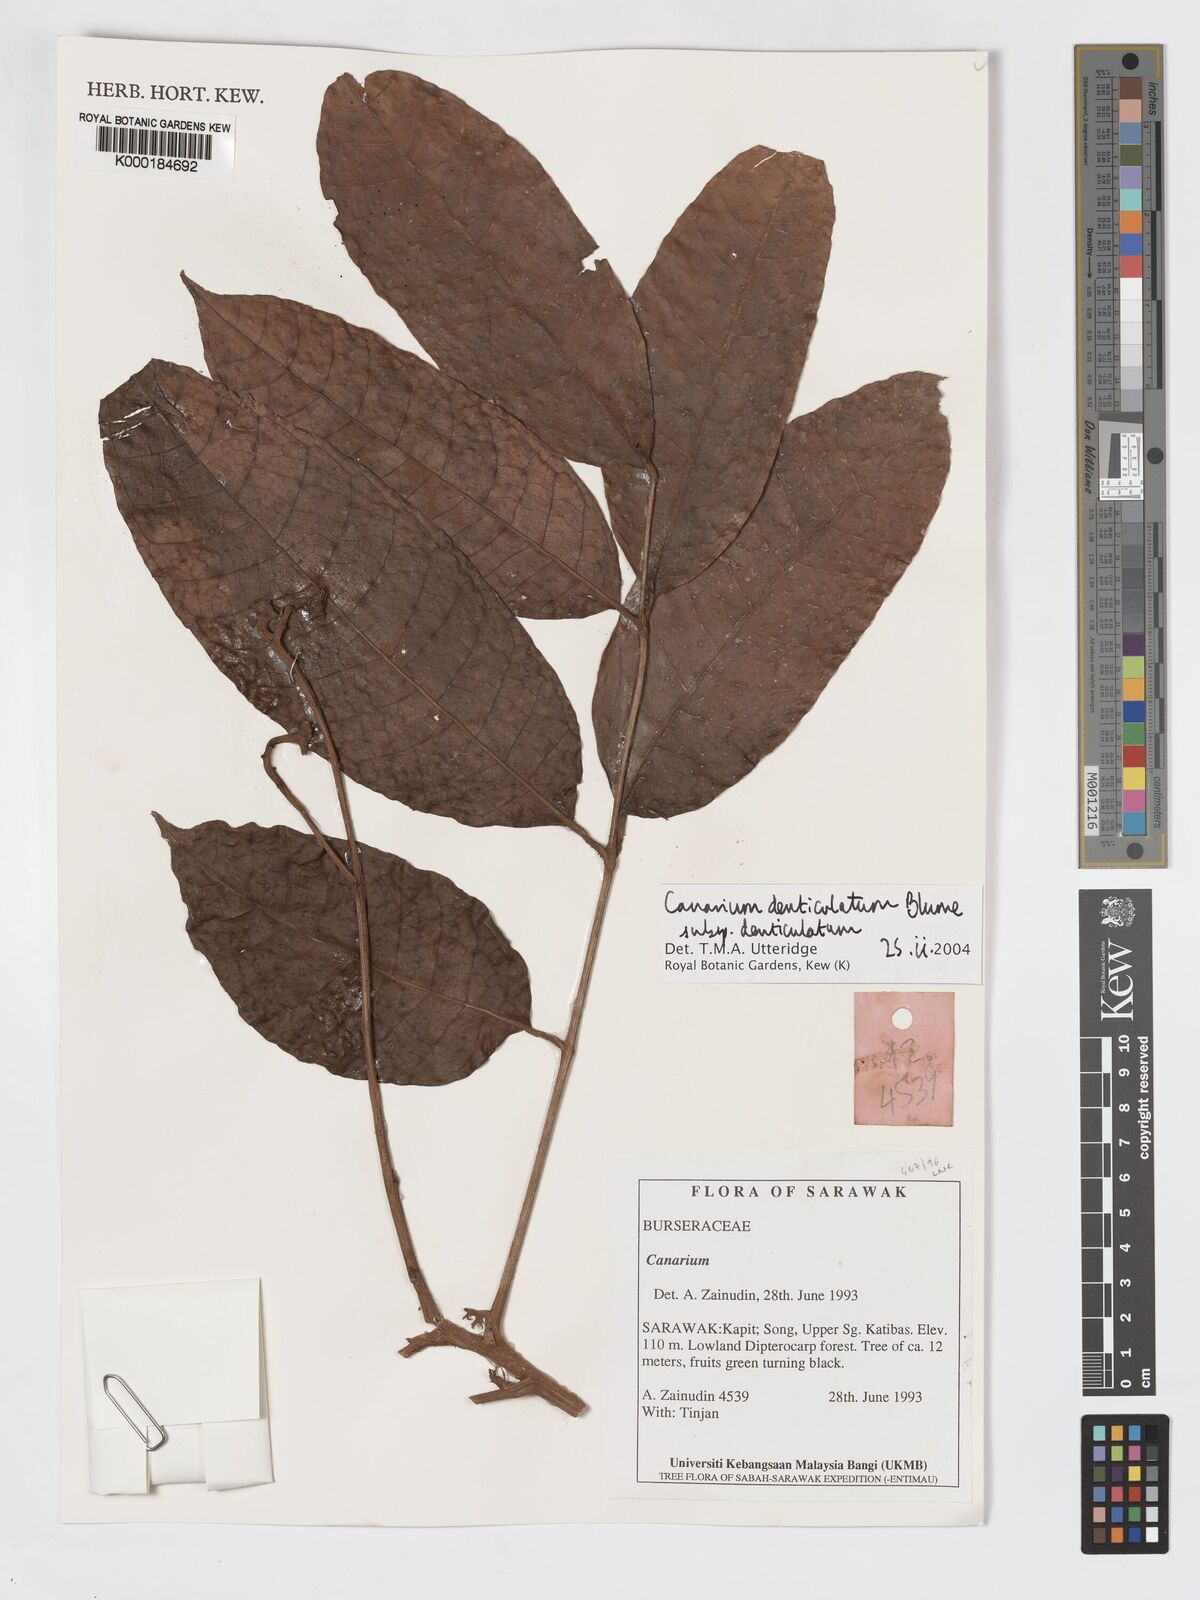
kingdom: Plantae
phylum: Tracheophyta
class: Magnoliopsida
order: Sapindales
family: Burseraceae
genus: Canarium
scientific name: Canarium denticulatum
